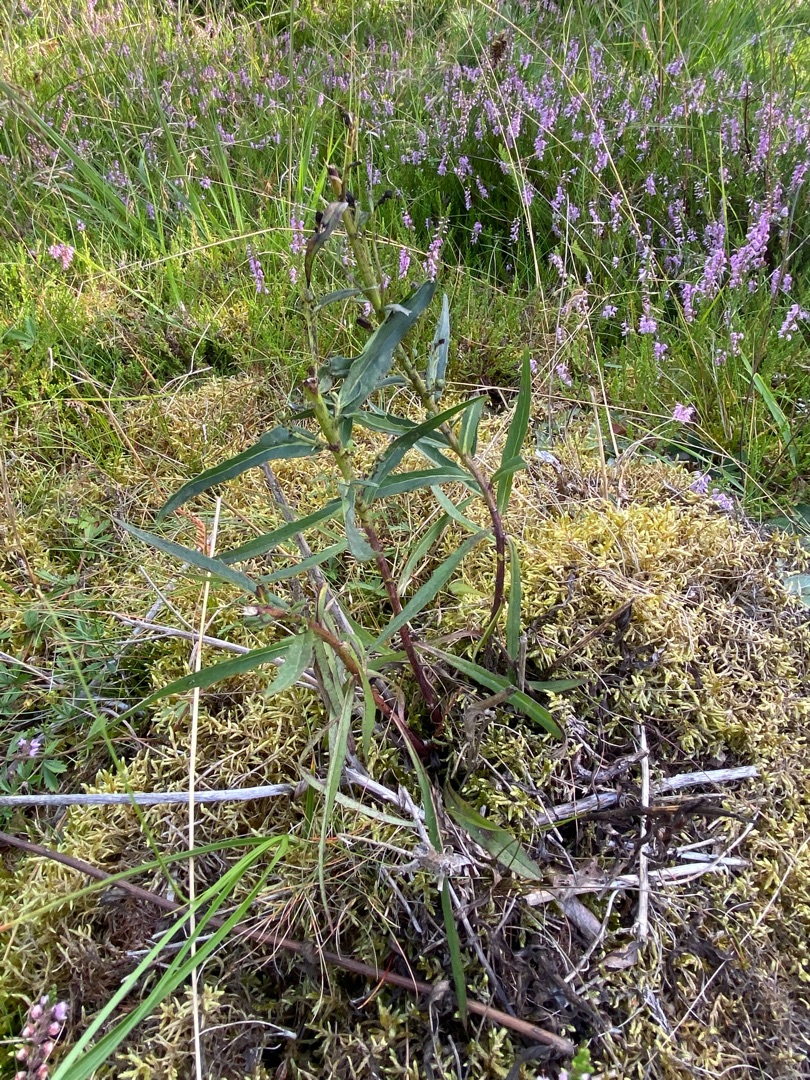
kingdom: Plantae
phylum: Tracheophyta
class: Magnoliopsida
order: Asterales
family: Asteraceae
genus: Hieracium
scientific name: Hieracium umbellatum
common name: Smalbladet høgeurt
